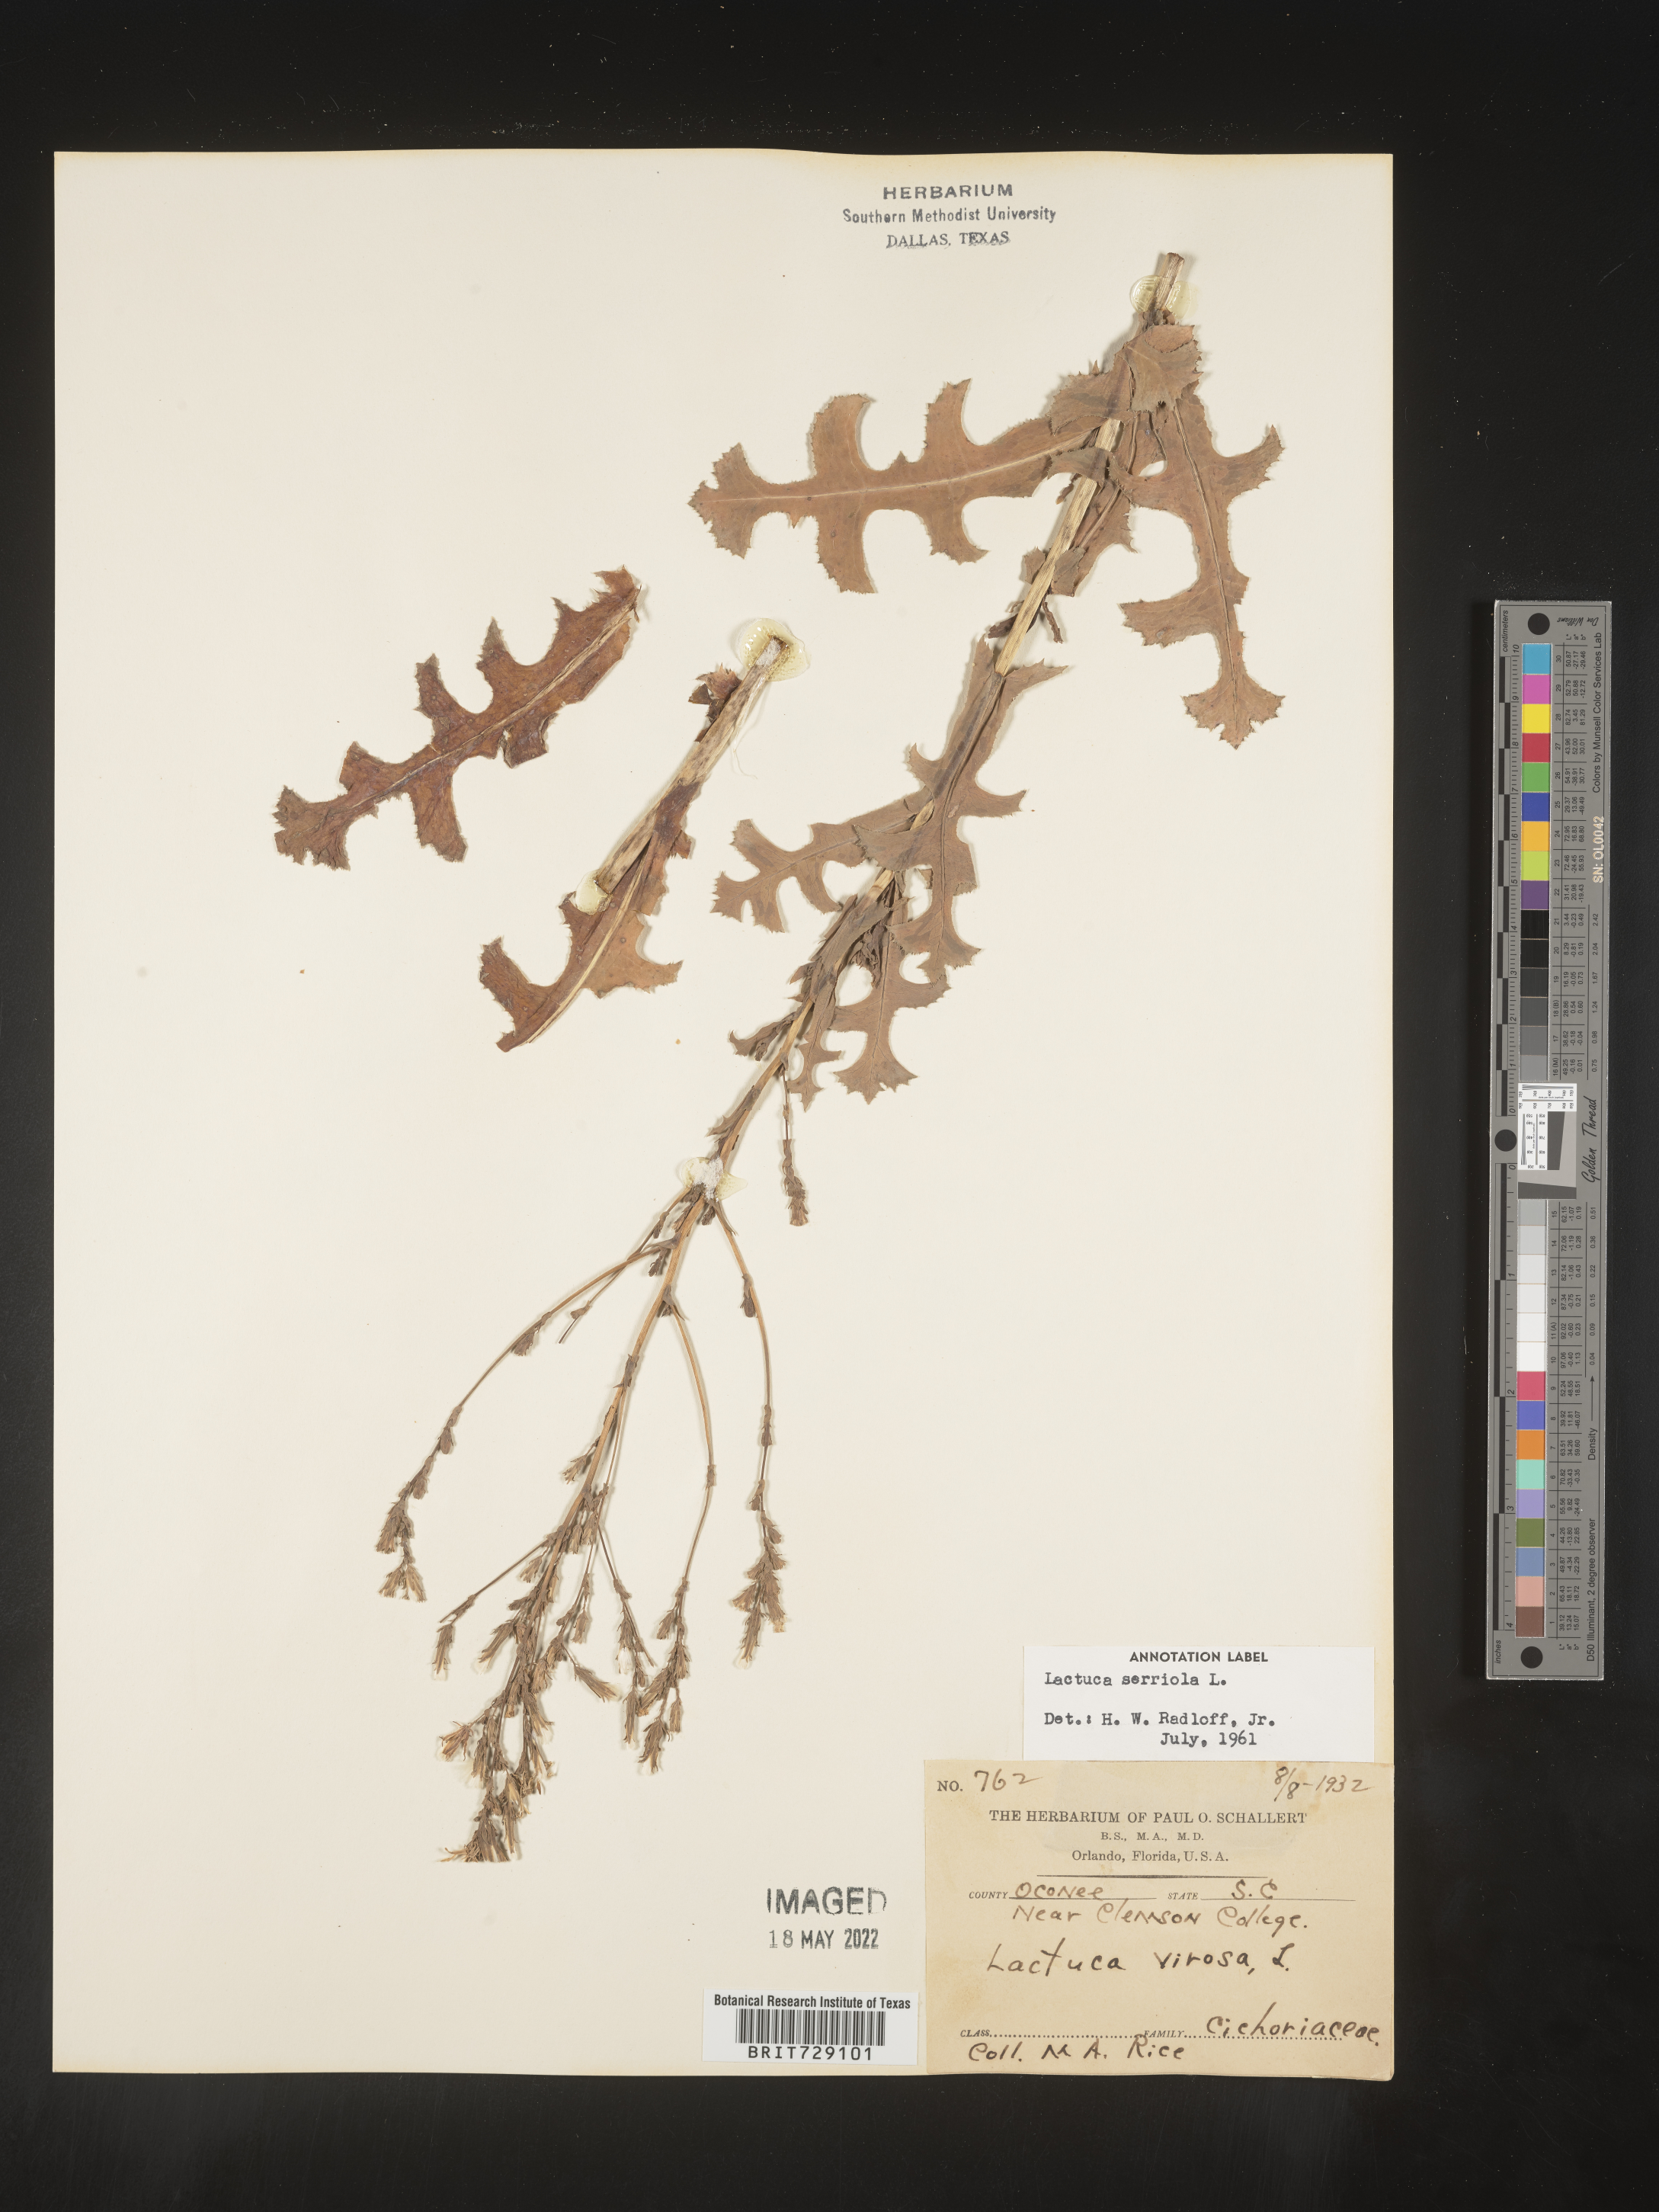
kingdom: Plantae
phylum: Tracheophyta
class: Magnoliopsida
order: Asterales
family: Asteraceae
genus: Lactuca
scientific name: Lactuca serriola
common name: Prickly lettuce
